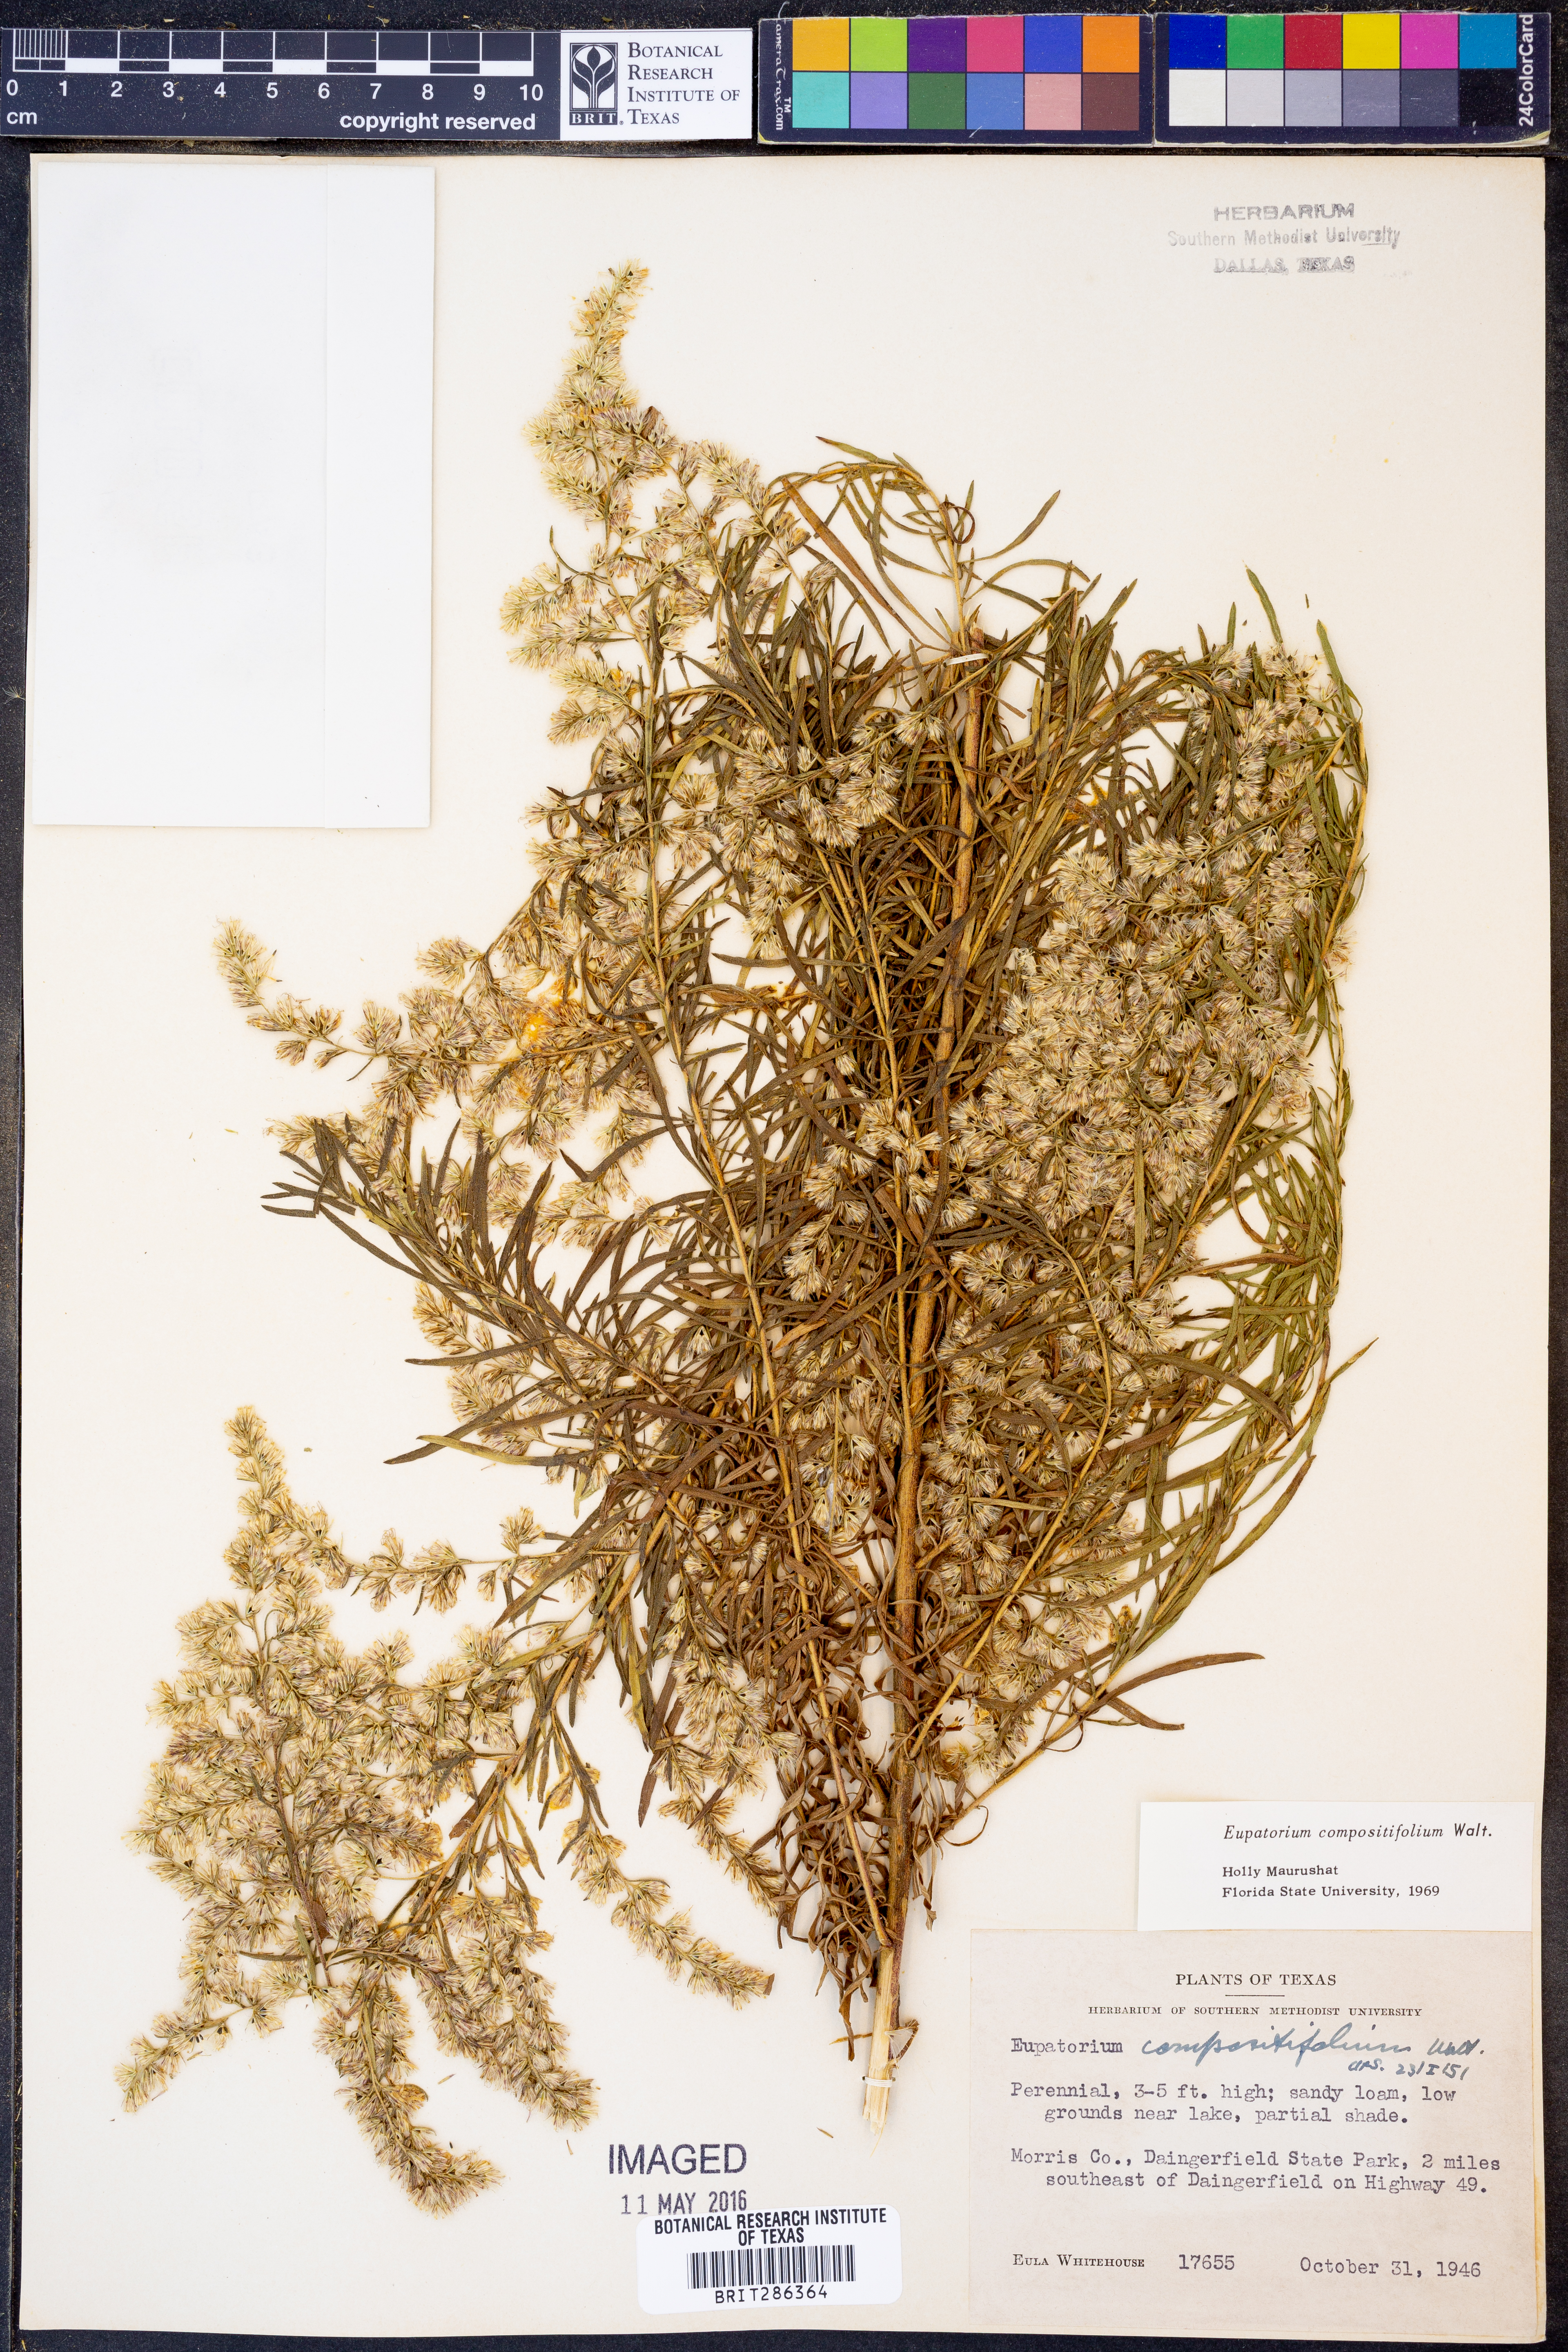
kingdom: Plantae
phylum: Tracheophyta
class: Magnoliopsida
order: Asterales
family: Asteraceae
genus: Eupatorium
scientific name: Eupatorium compositifolium
